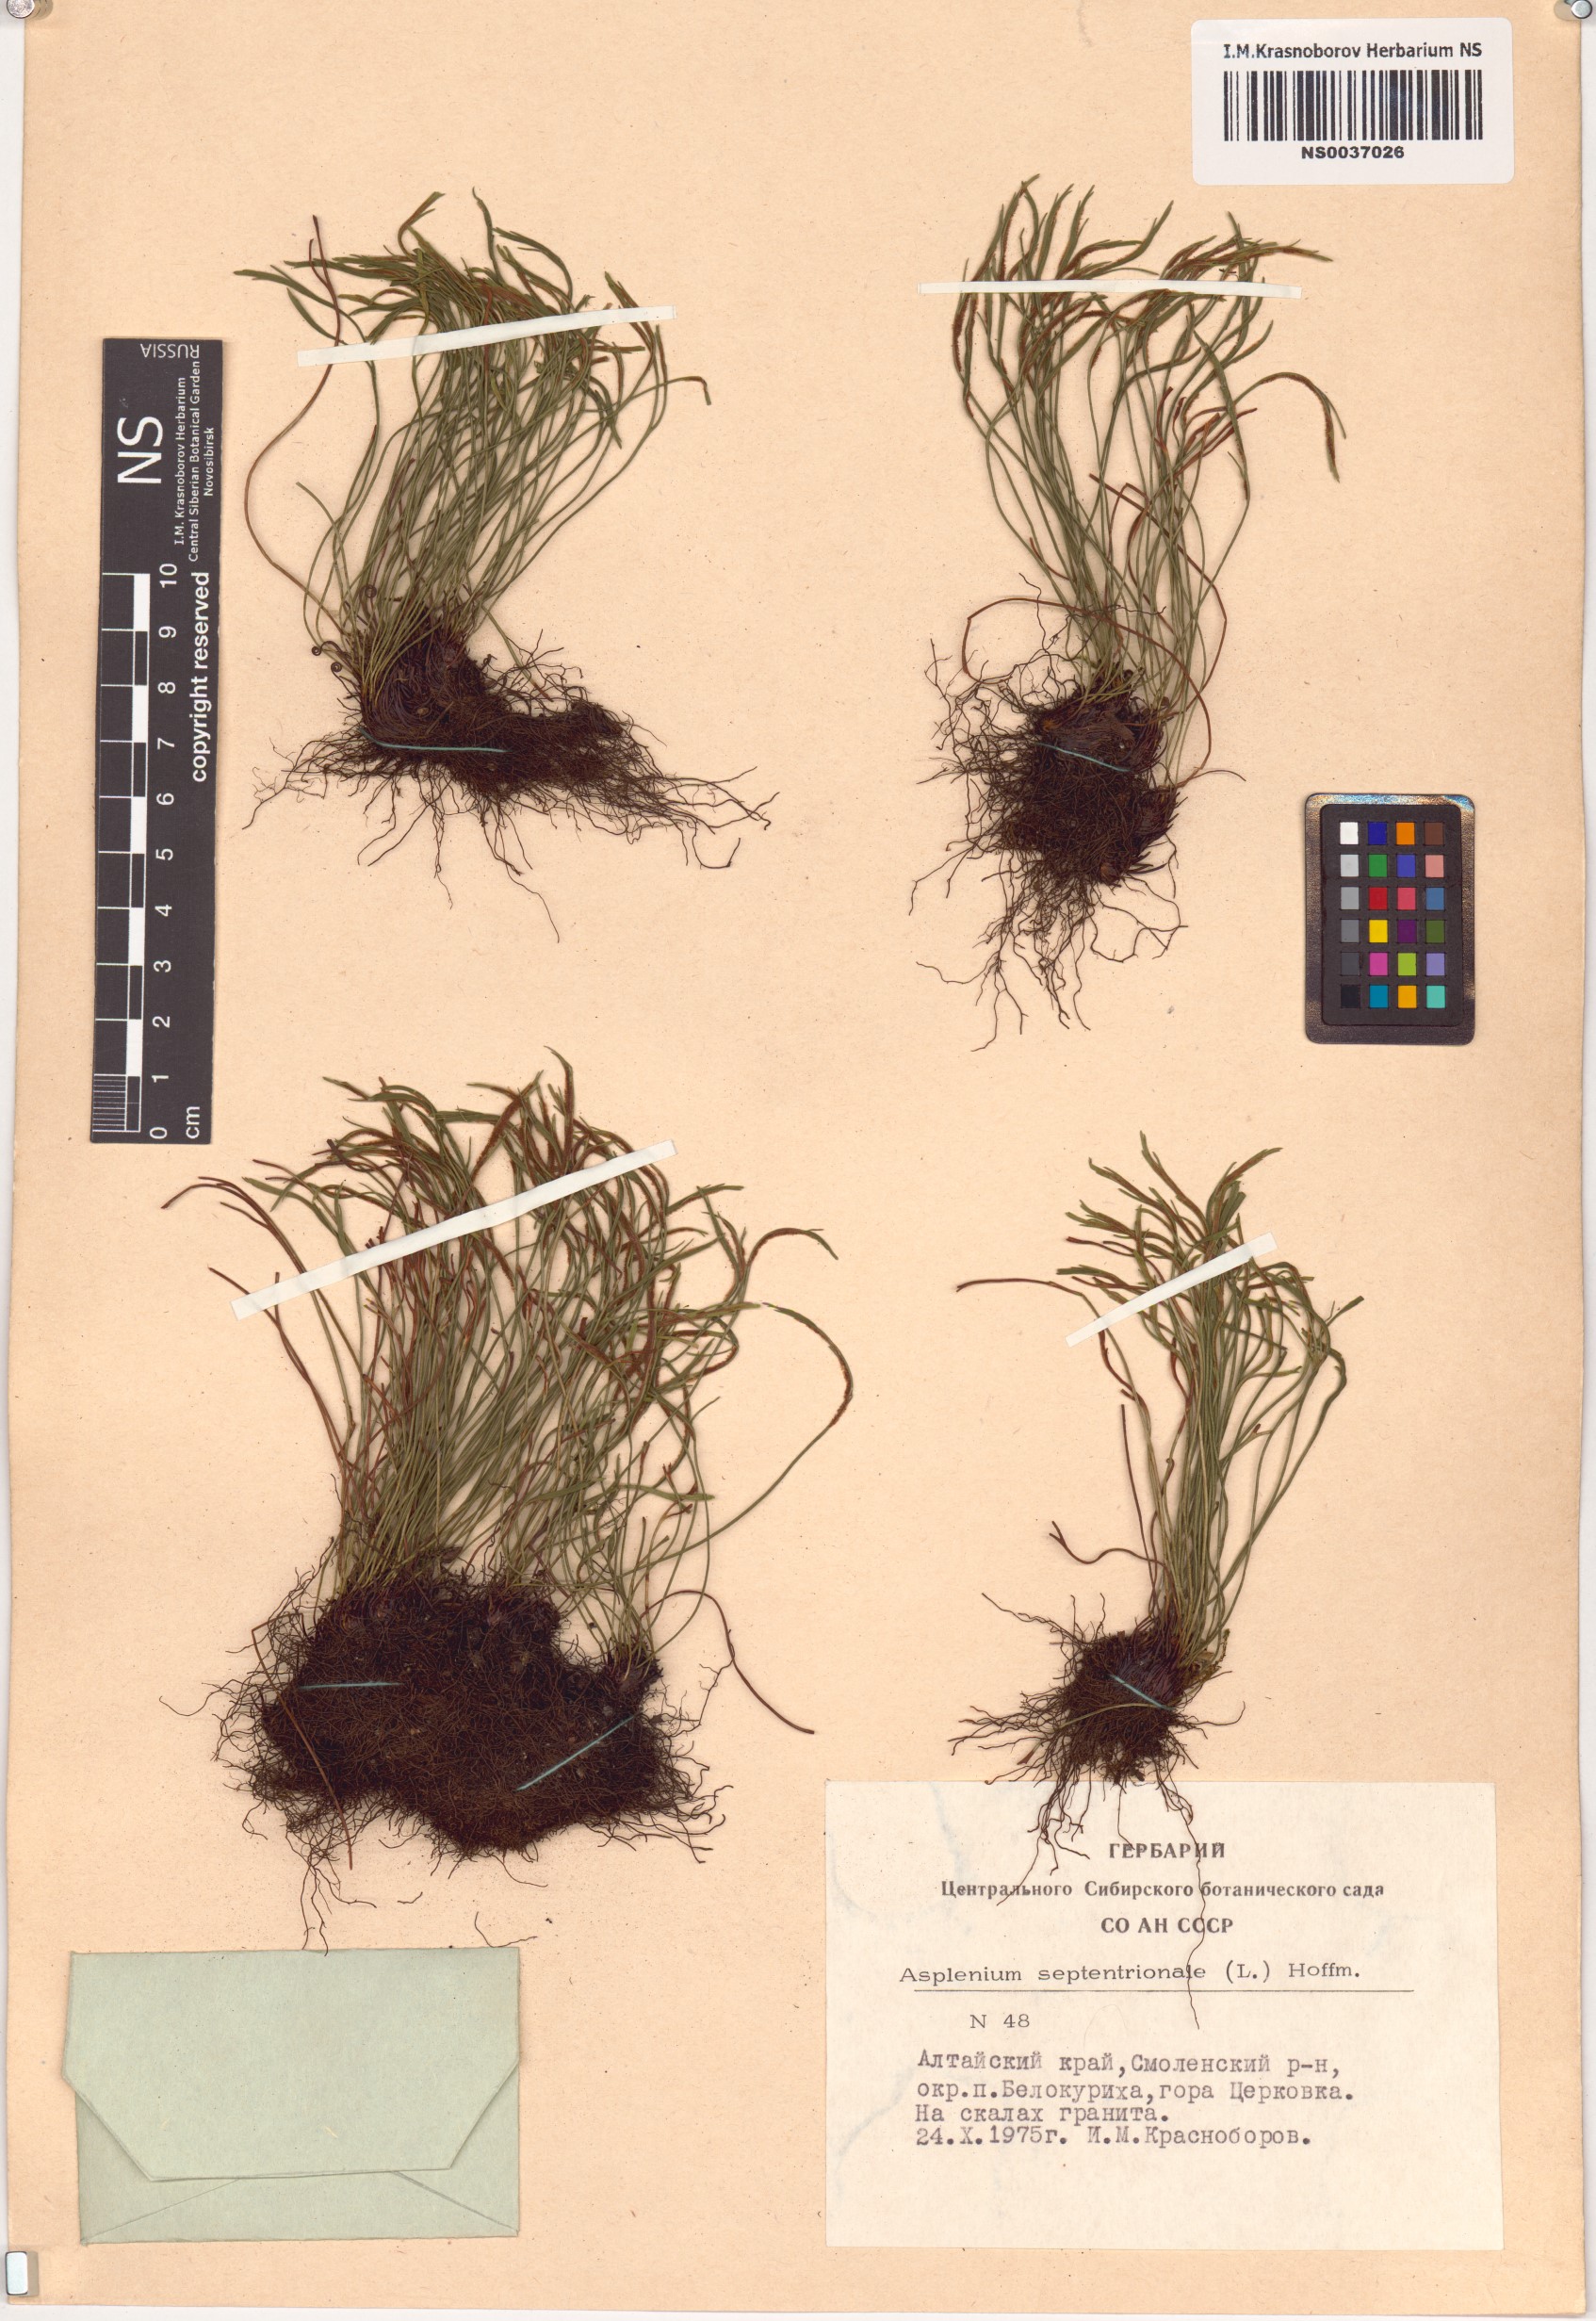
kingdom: Plantae
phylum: Tracheophyta
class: Polypodiopsida
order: Polypodiales
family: Aspleniaceae
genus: Asplenium
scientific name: Asplenium septentrionale
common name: Forked spleenwort
